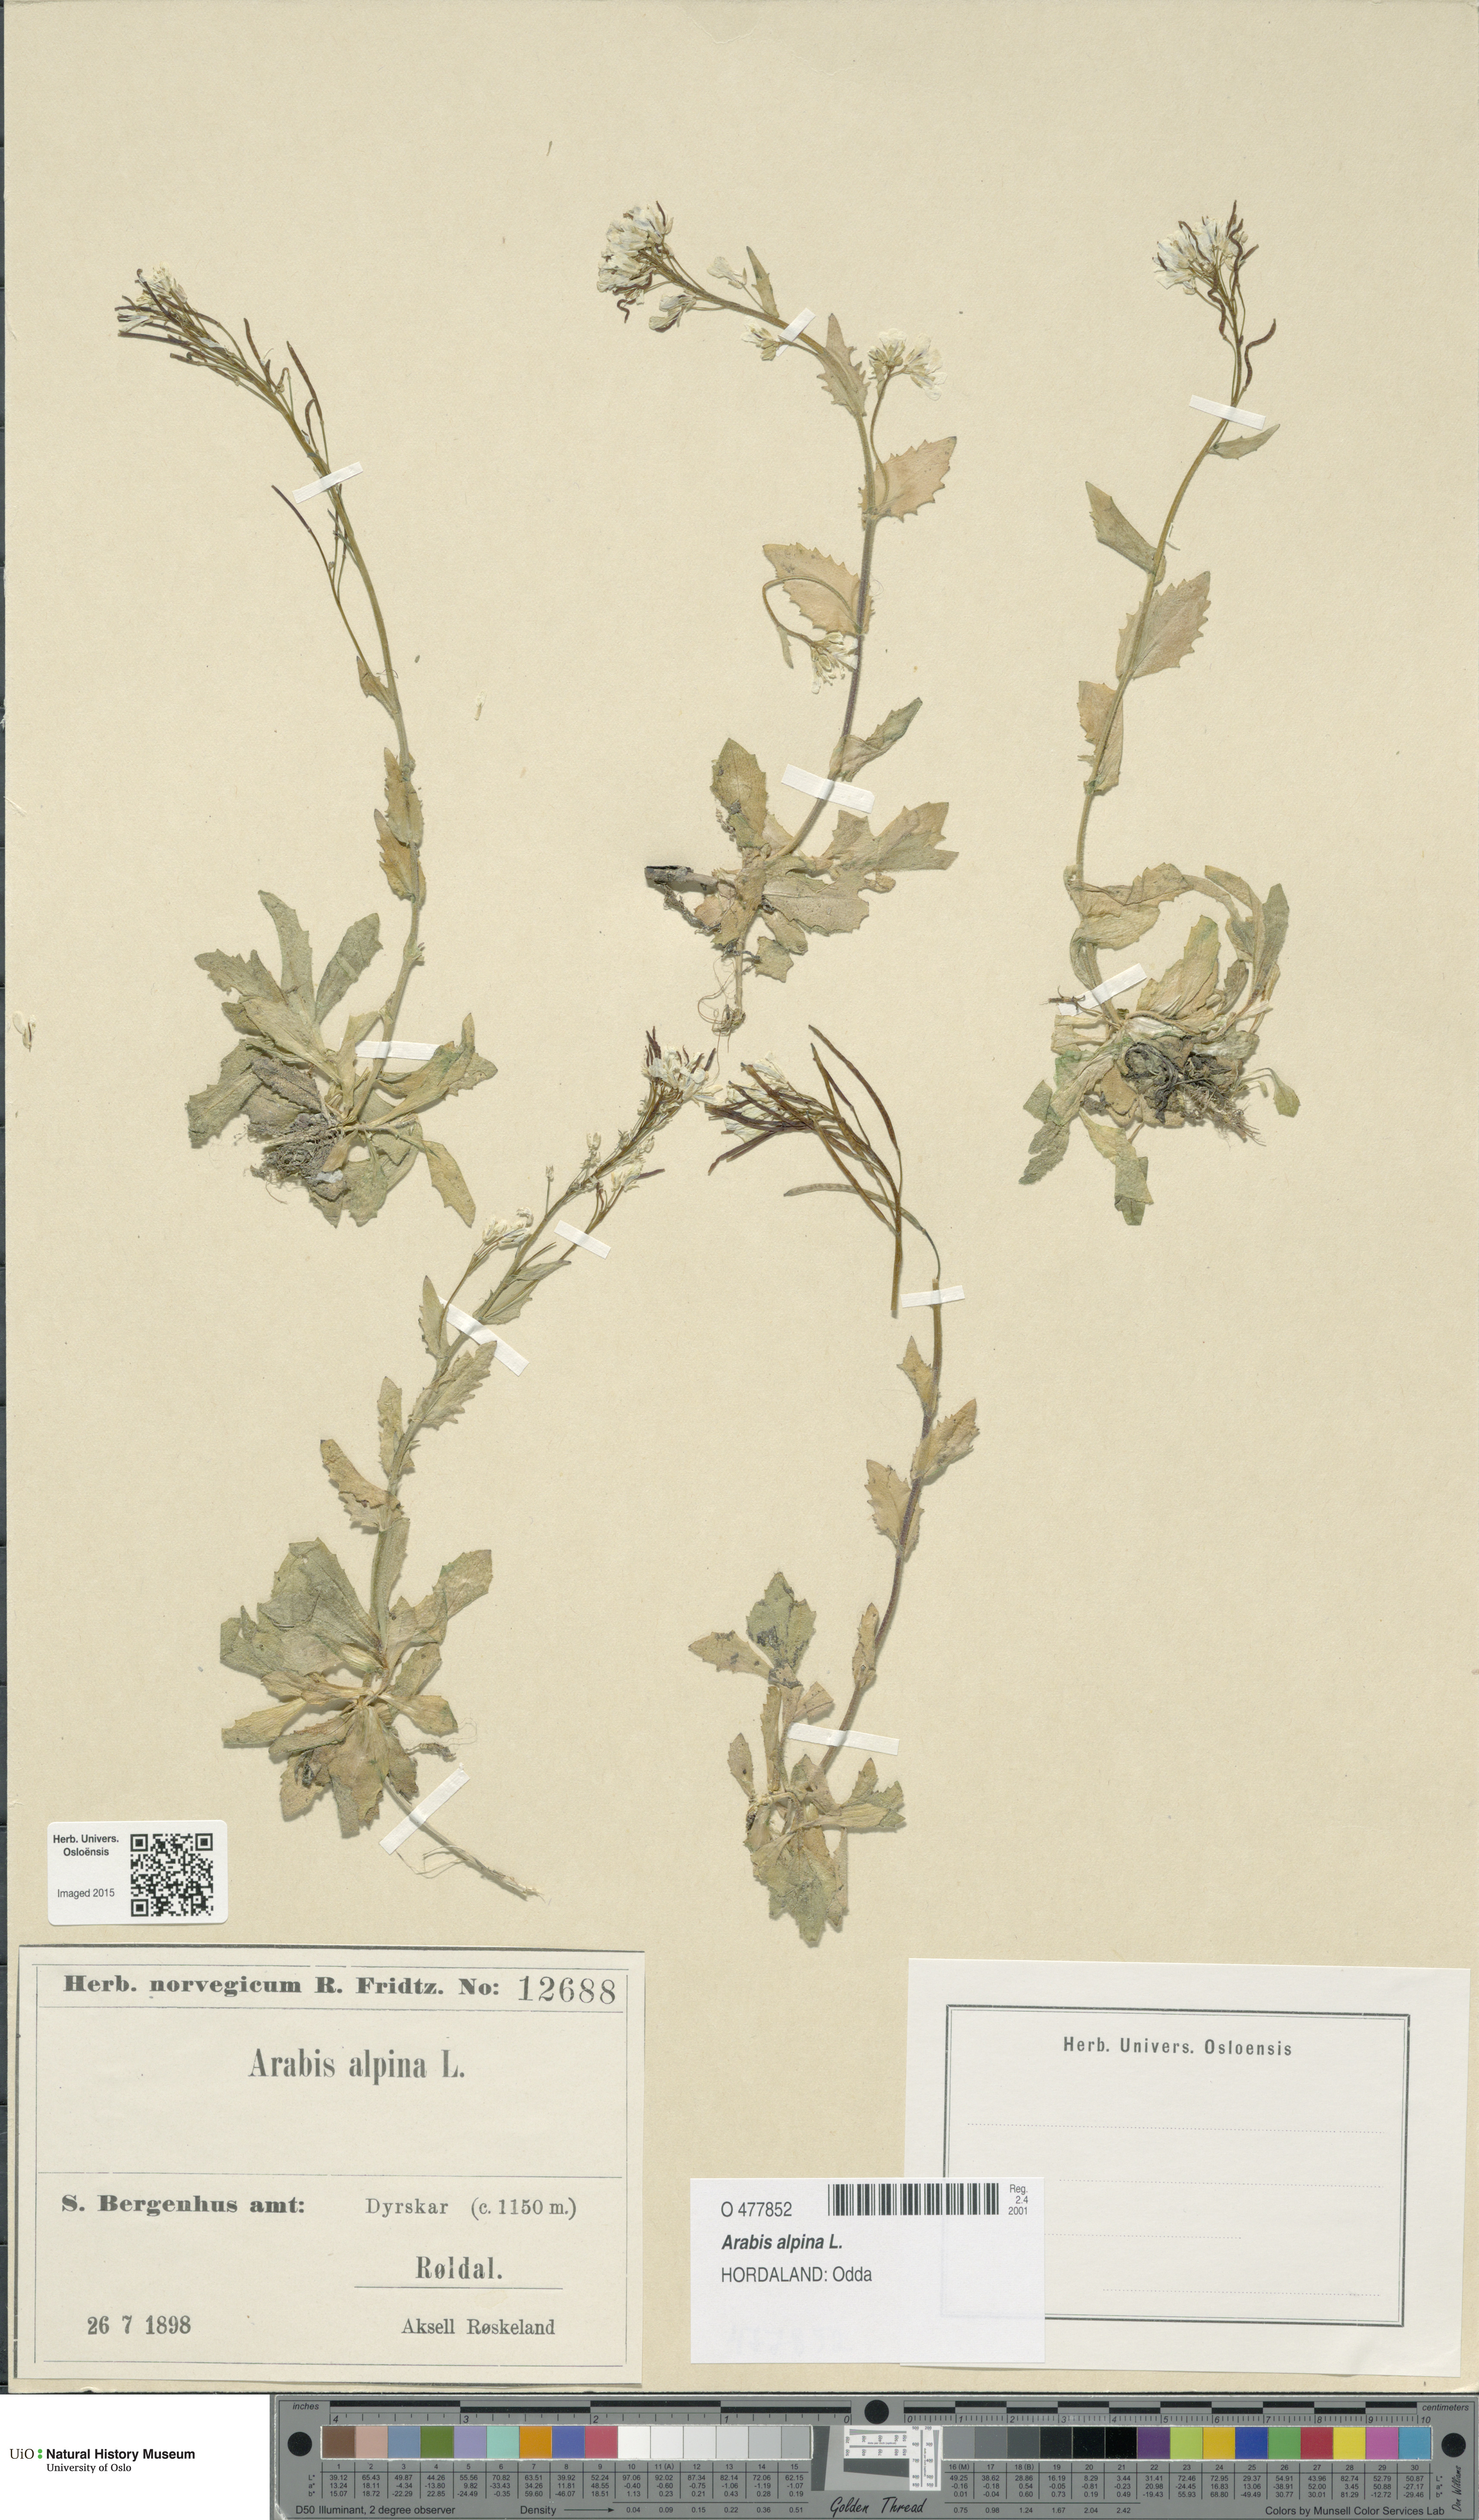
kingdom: Plantae
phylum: Tracheophyta
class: Magnoliopsida
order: Brassicales
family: Brassicaceae
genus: Arabis
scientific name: Arabis alpina
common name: Alpine rock-cress
